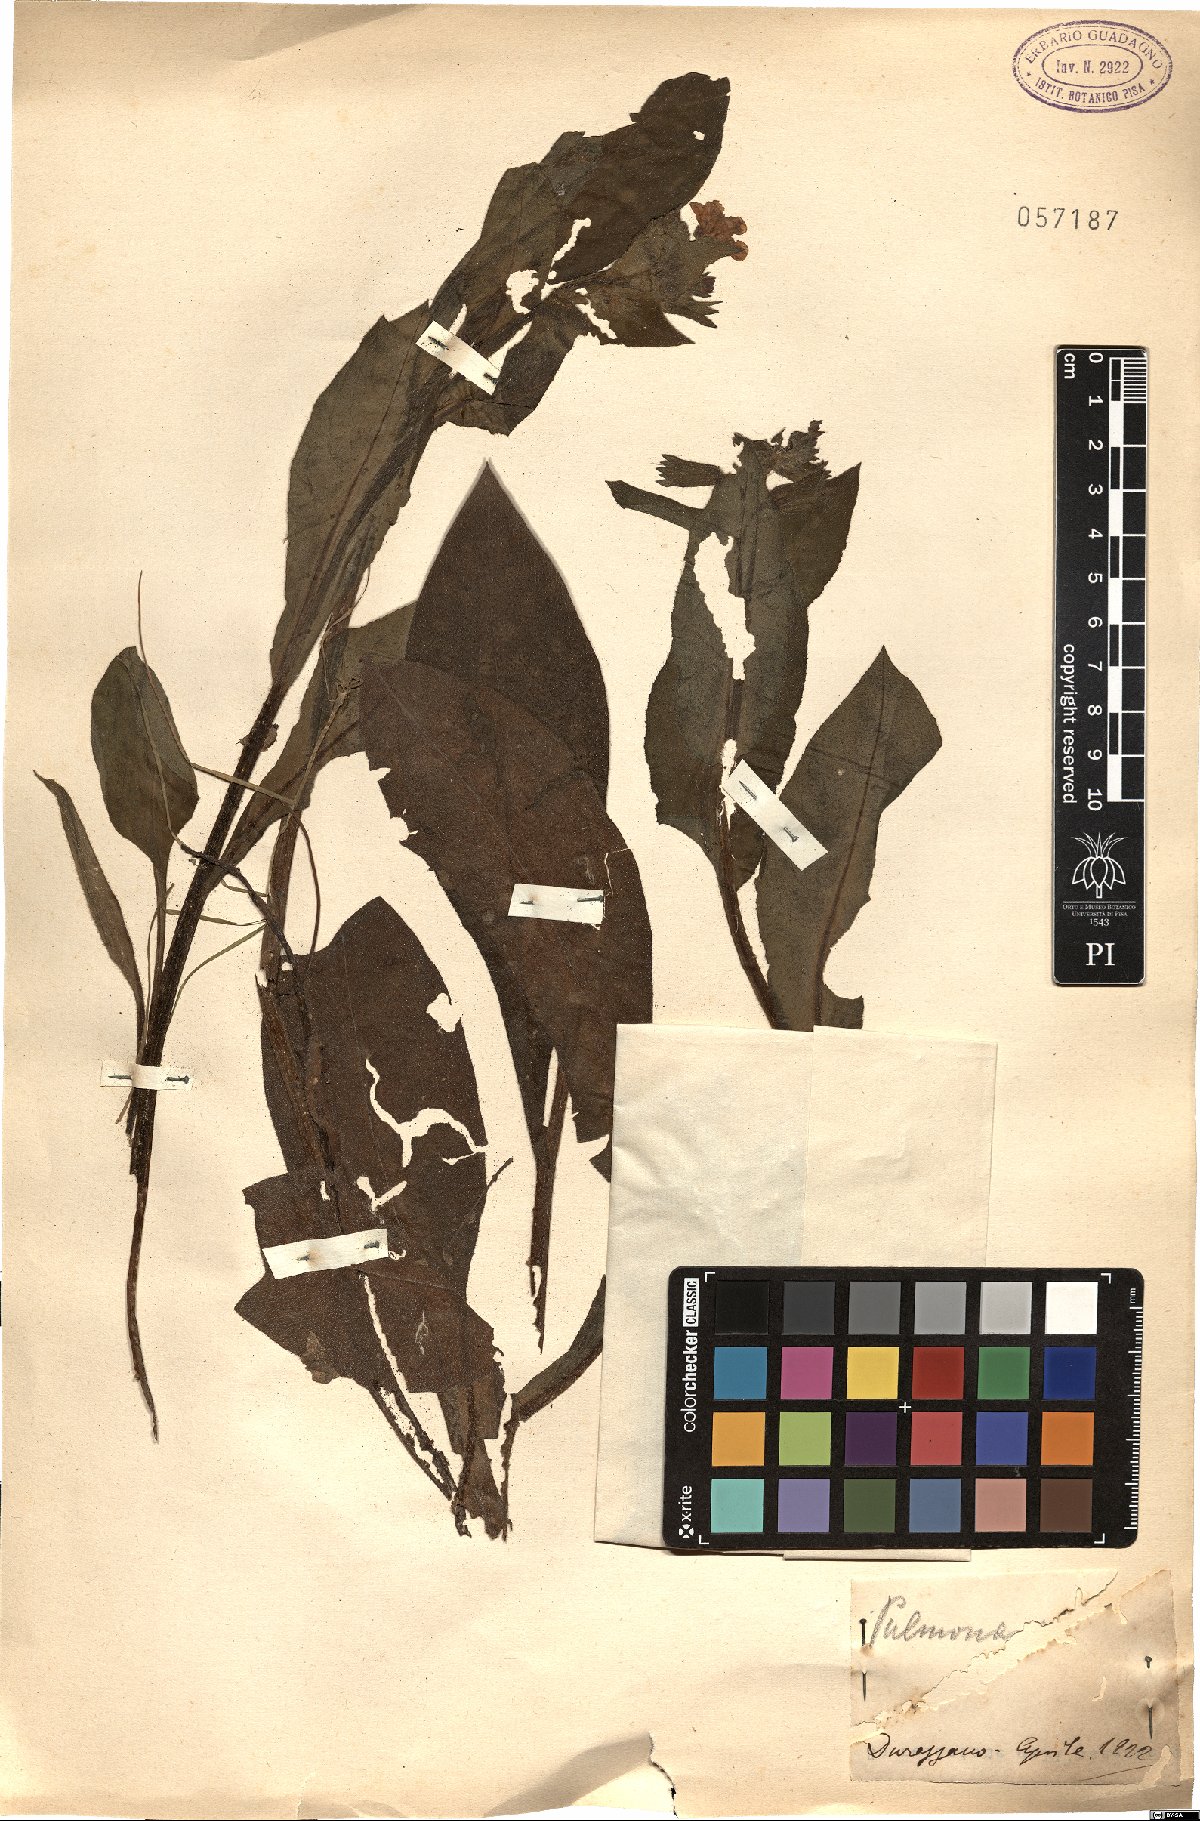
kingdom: Plantae
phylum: Tracheophyta
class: Magnoliopsida
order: Boraginales
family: Boraginaceae
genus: Pulmonaria
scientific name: Pulmonaria
